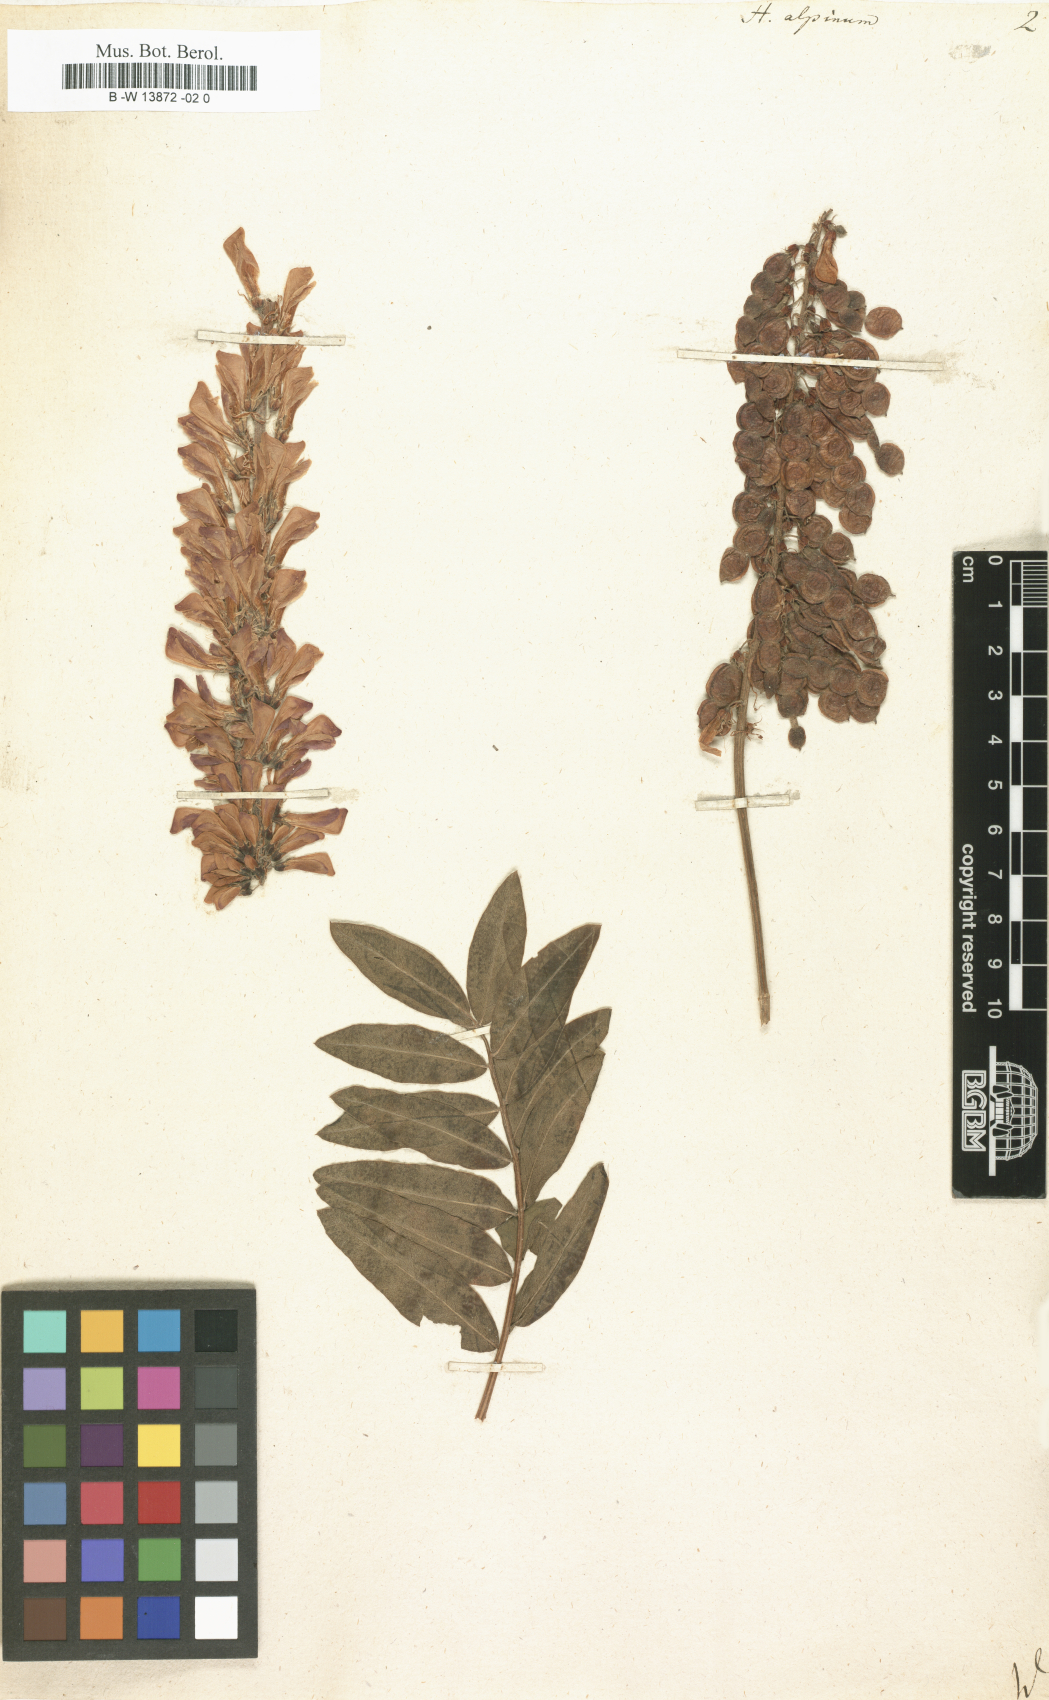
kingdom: Plantae
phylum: Tracheophyta
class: Magnoliopsida
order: Fabales
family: Fabaceae
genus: Hedysarum
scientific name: Hedysarum alpinum
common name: Alpine sweet-vetch
